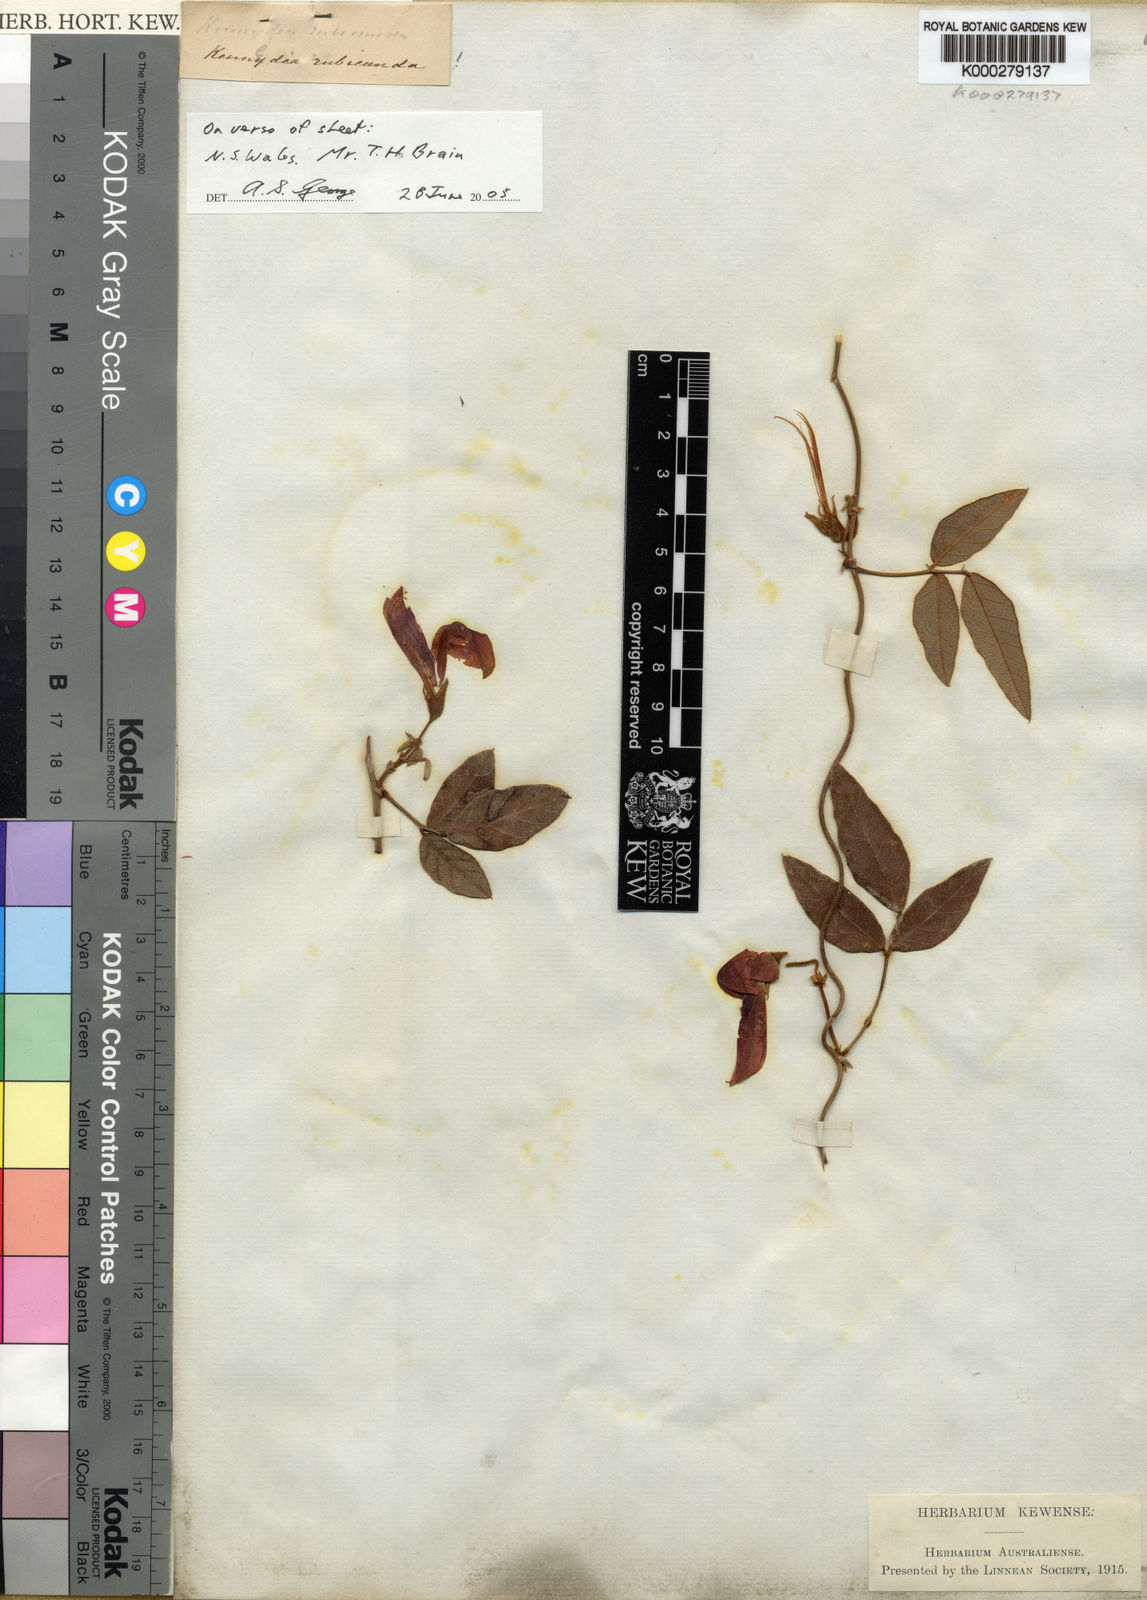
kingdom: Plantae
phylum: Tracheophyta
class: Magnoliopsida
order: Fabales
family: Fabaceae
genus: Kennedia
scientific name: Kennedia rubicunda
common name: Red kennedy-pea
